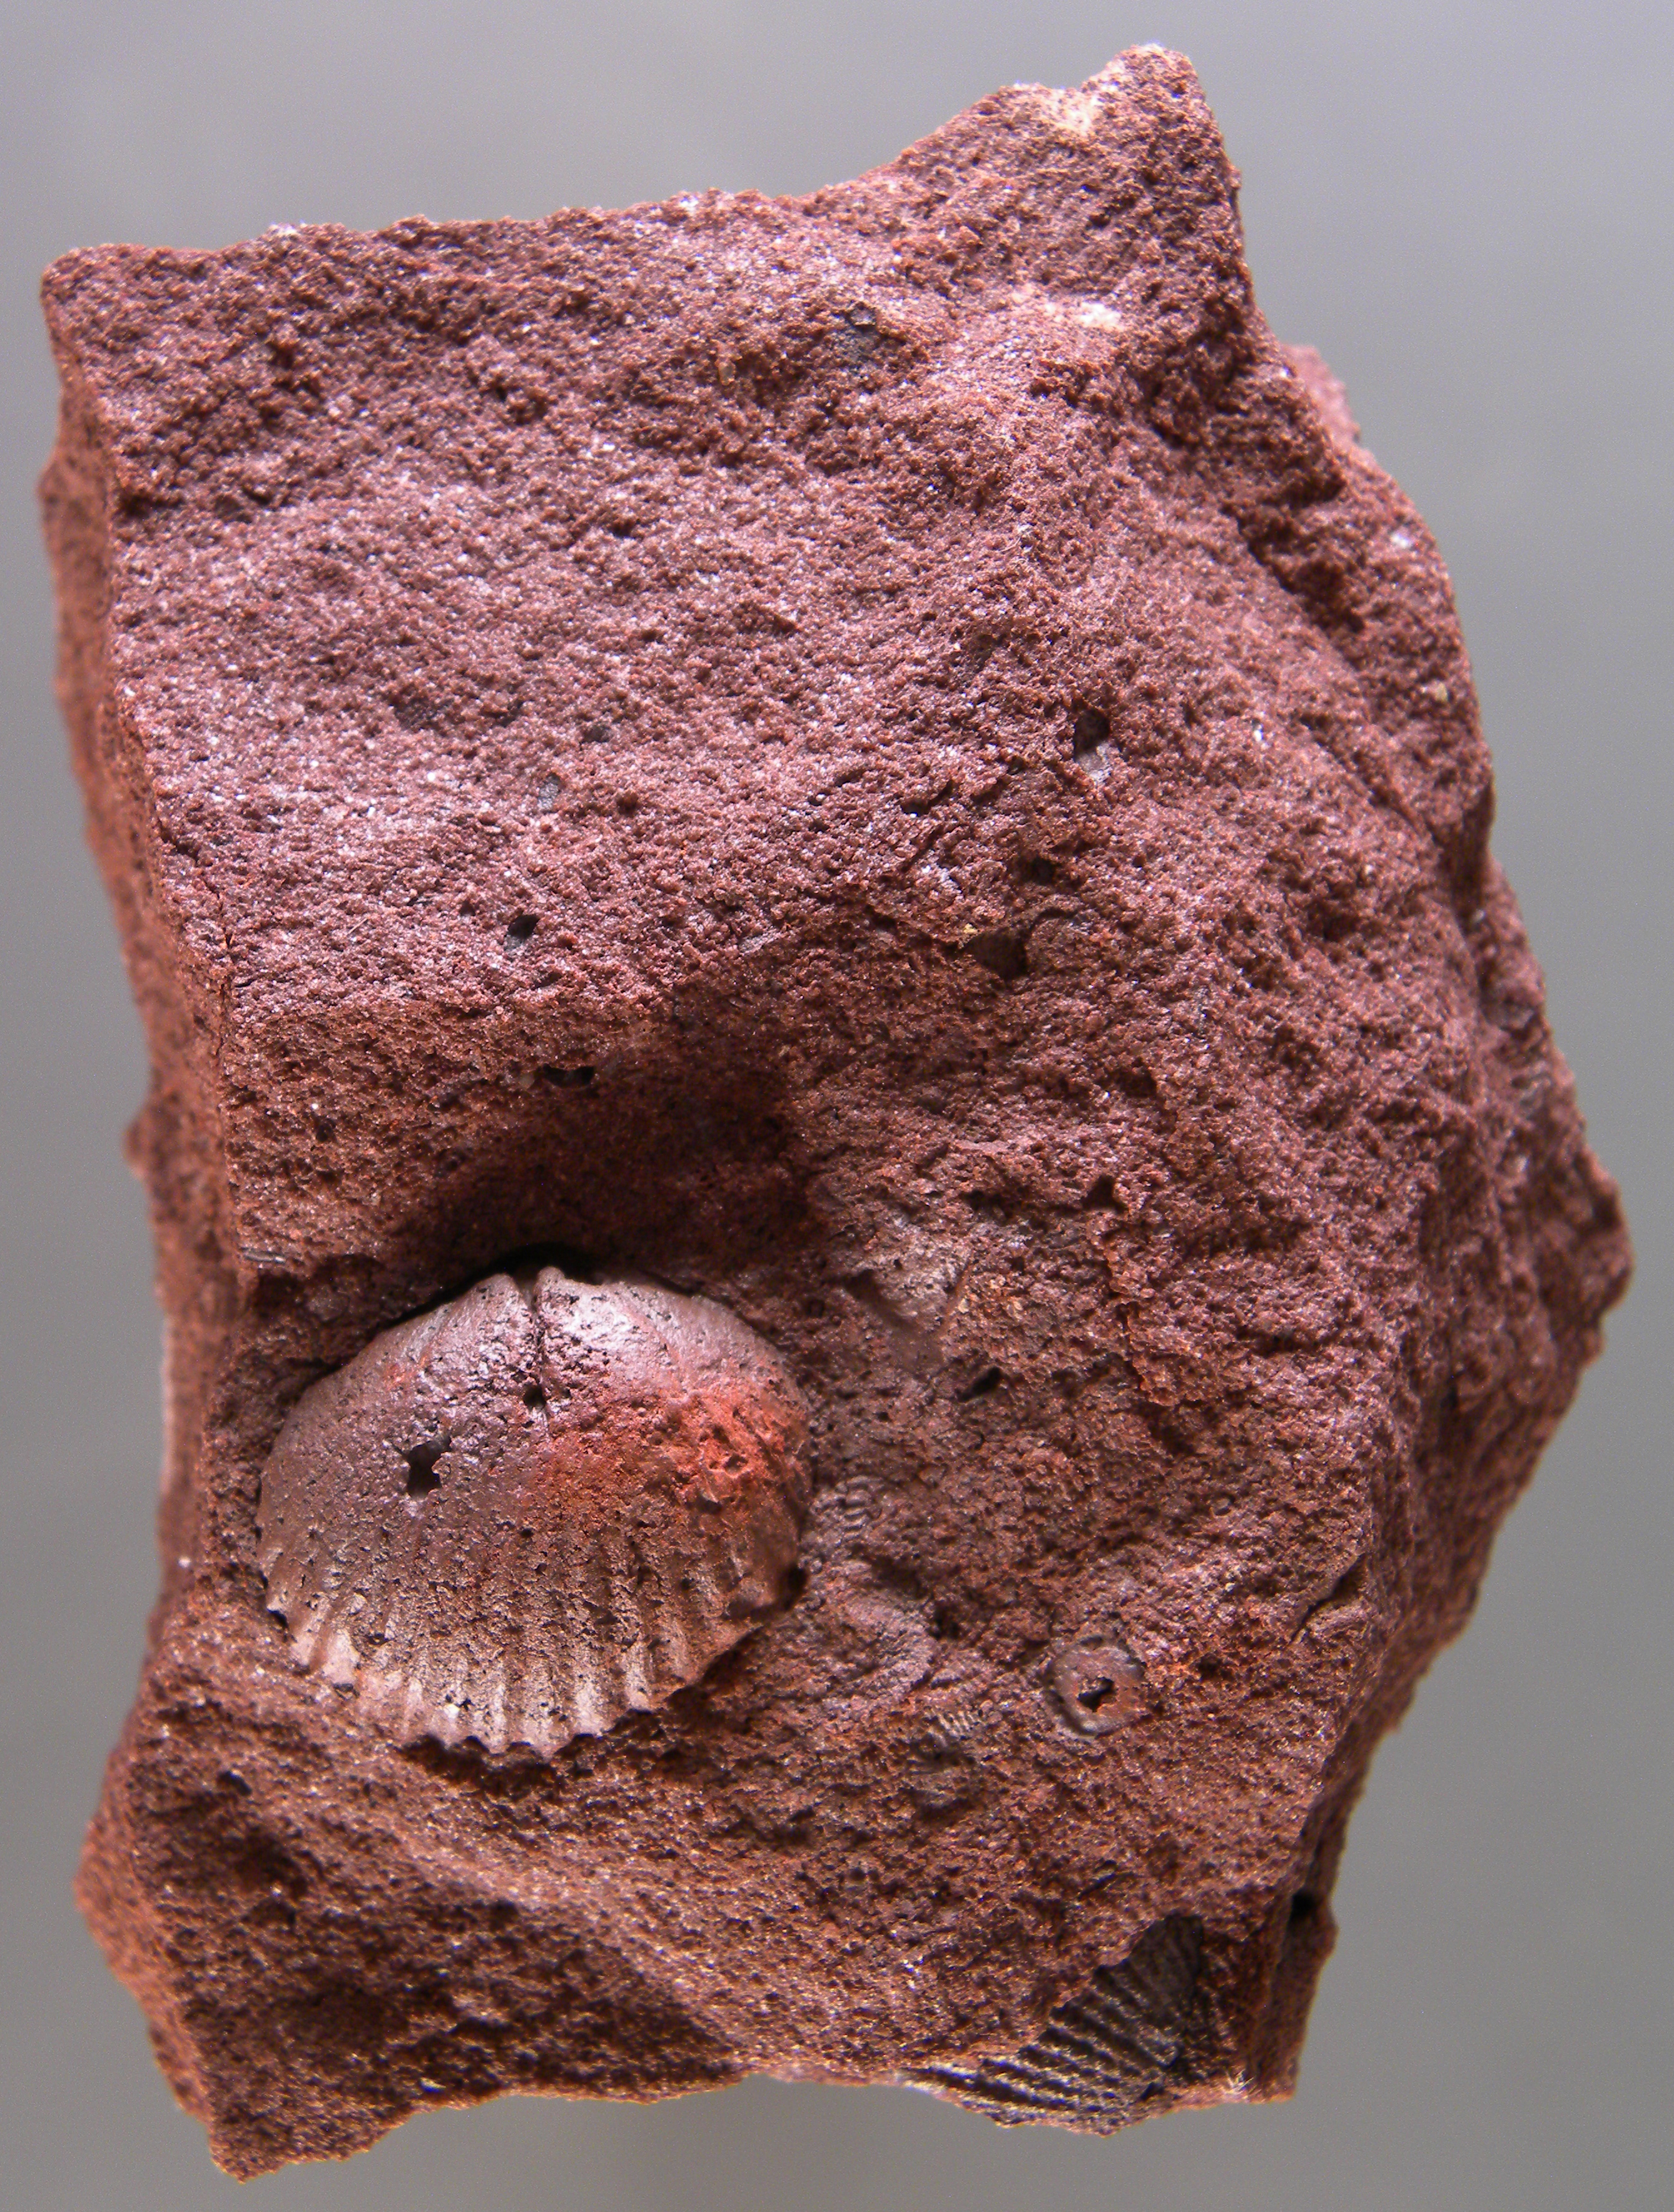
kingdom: Animalia
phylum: Brachiopoda
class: Rhynchonellata
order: Terebratulida
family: Mutationellidae
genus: Mutationella
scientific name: Mutationella
